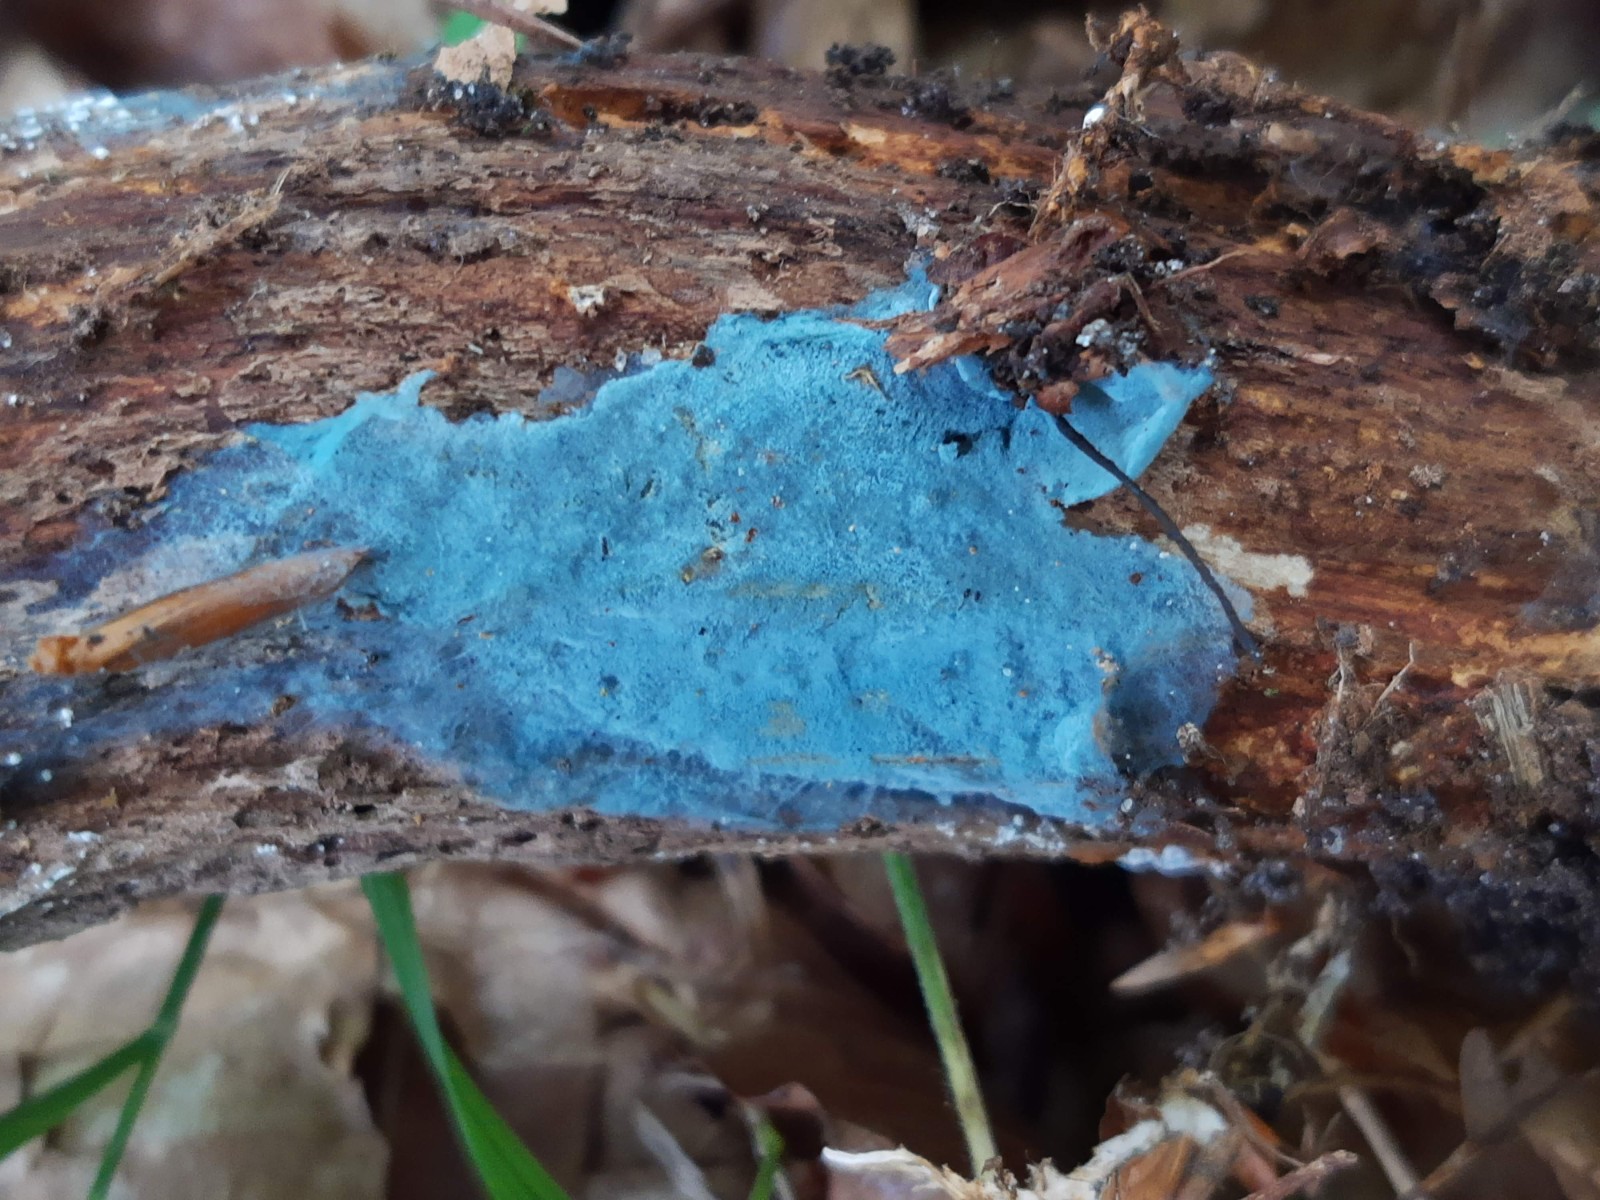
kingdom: Fungi
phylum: Basidiomycota
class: Agaricomycetes
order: Atheliales
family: Atheliaceae
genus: Byssocorticium
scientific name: Byssocorticium atrovirens
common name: blå førnehinde
